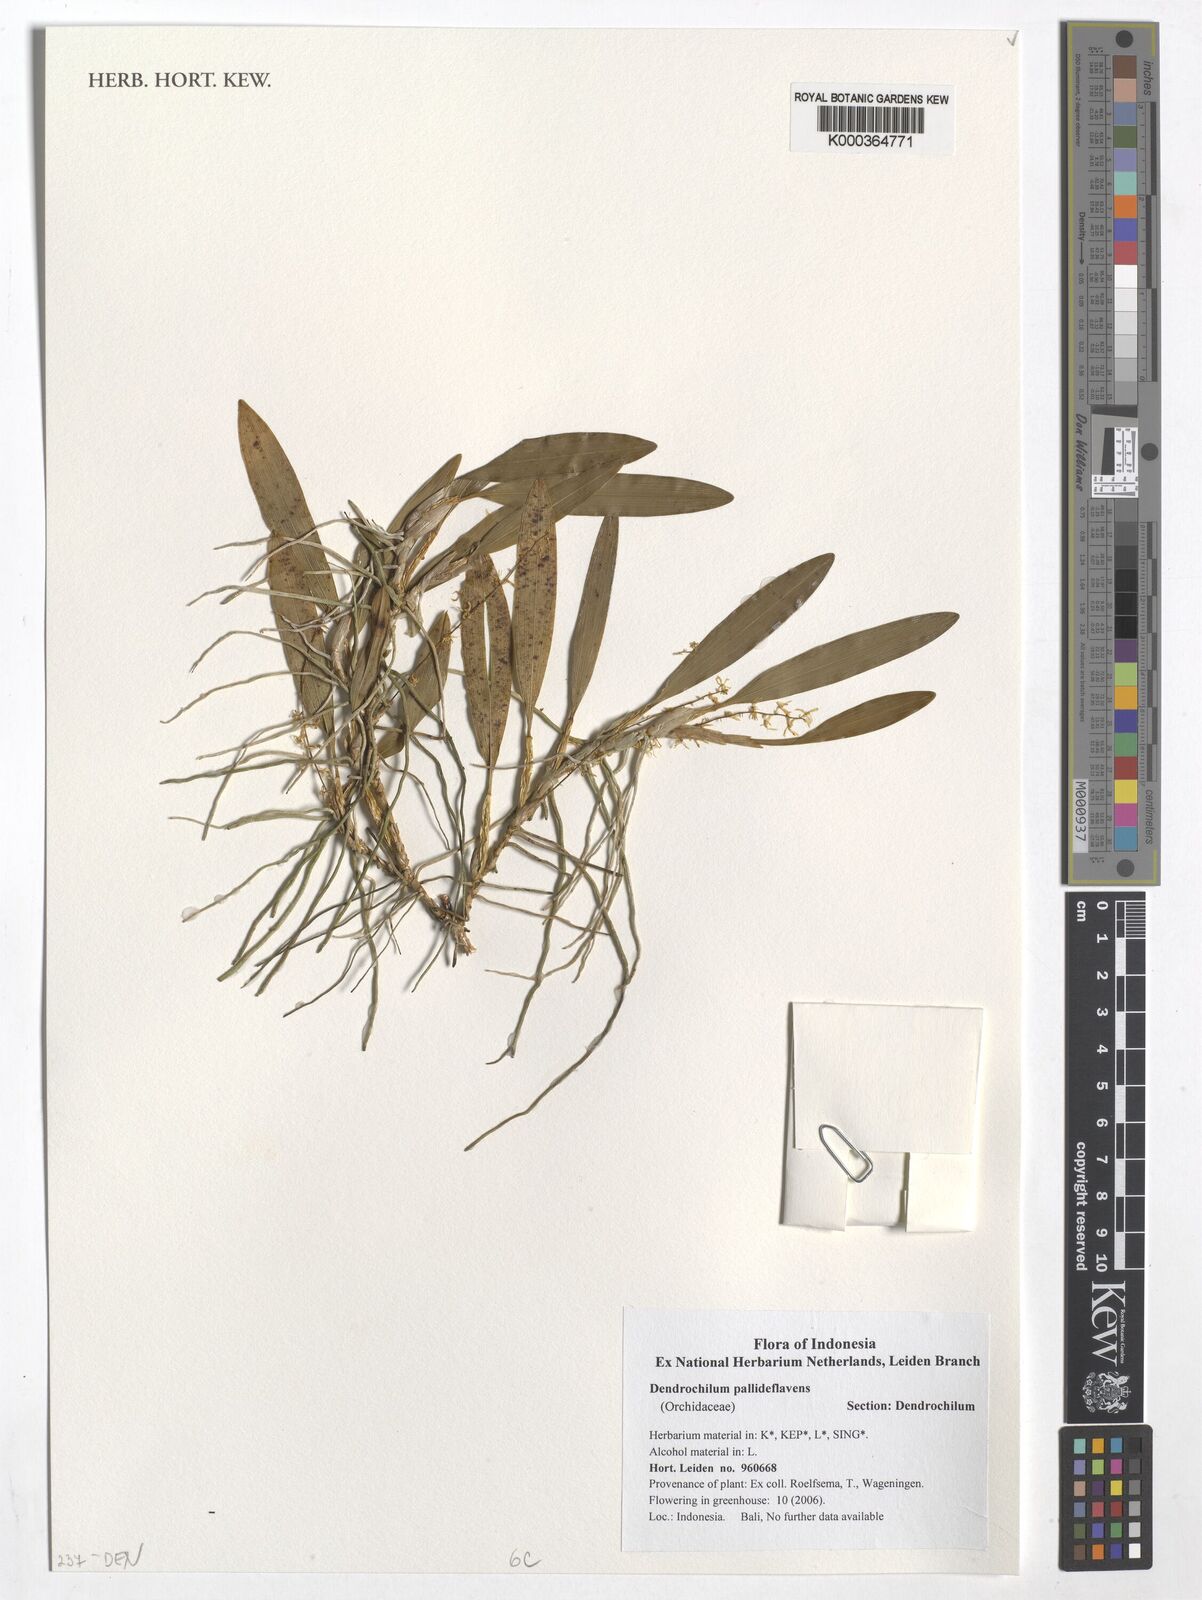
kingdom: Plantae
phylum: Tracheophyta
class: Liliopsida
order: Asparagales
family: Orchidaceae
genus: Dendrobium
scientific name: Dendrobium xantholeucum
